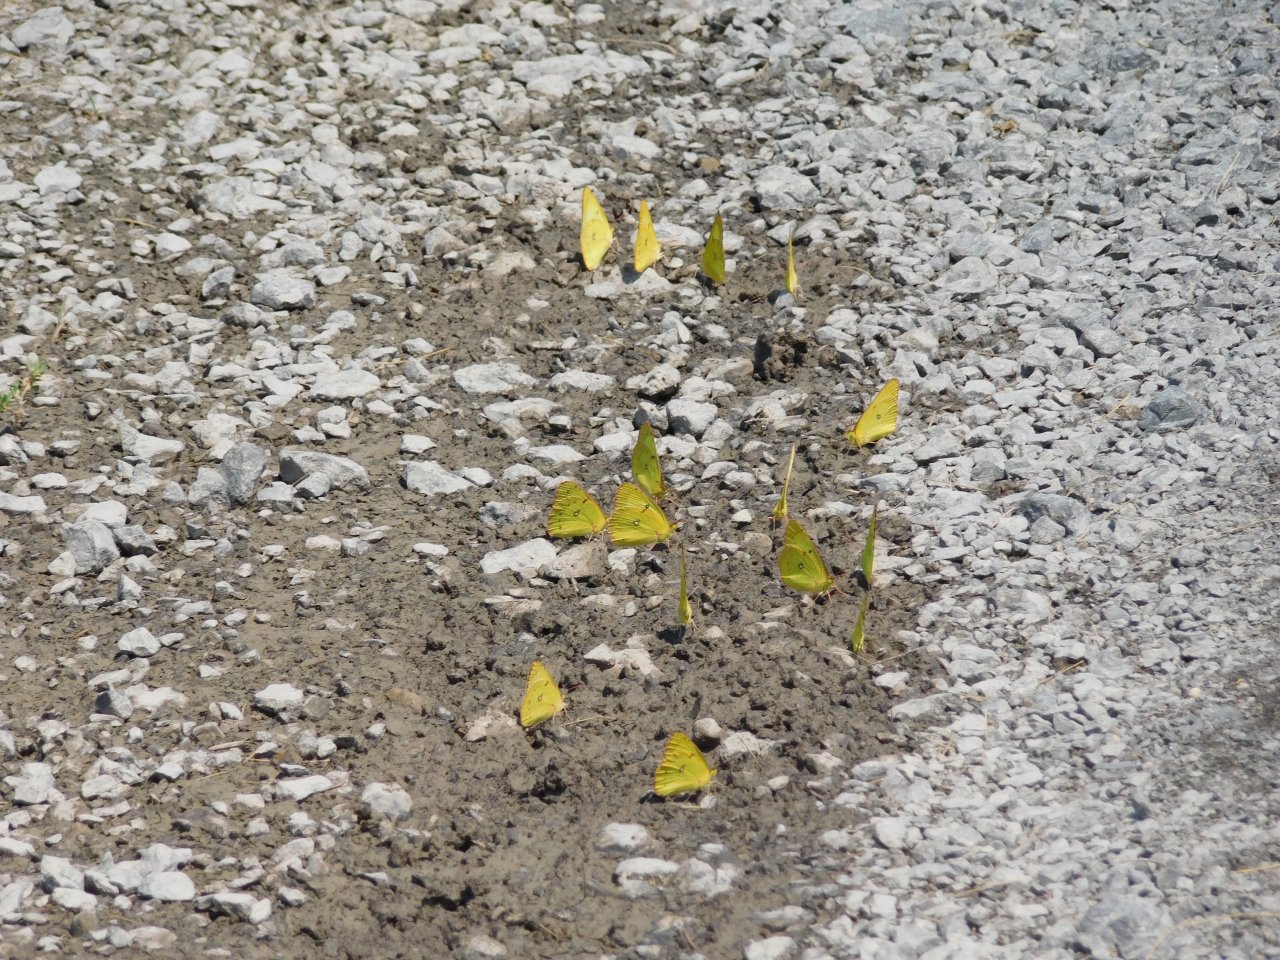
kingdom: Animalia
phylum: Arthropoda
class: Insecta
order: Lepidoptera
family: Pieridae
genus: Colias
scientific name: Colias philodice
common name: Clouded Sulphur
